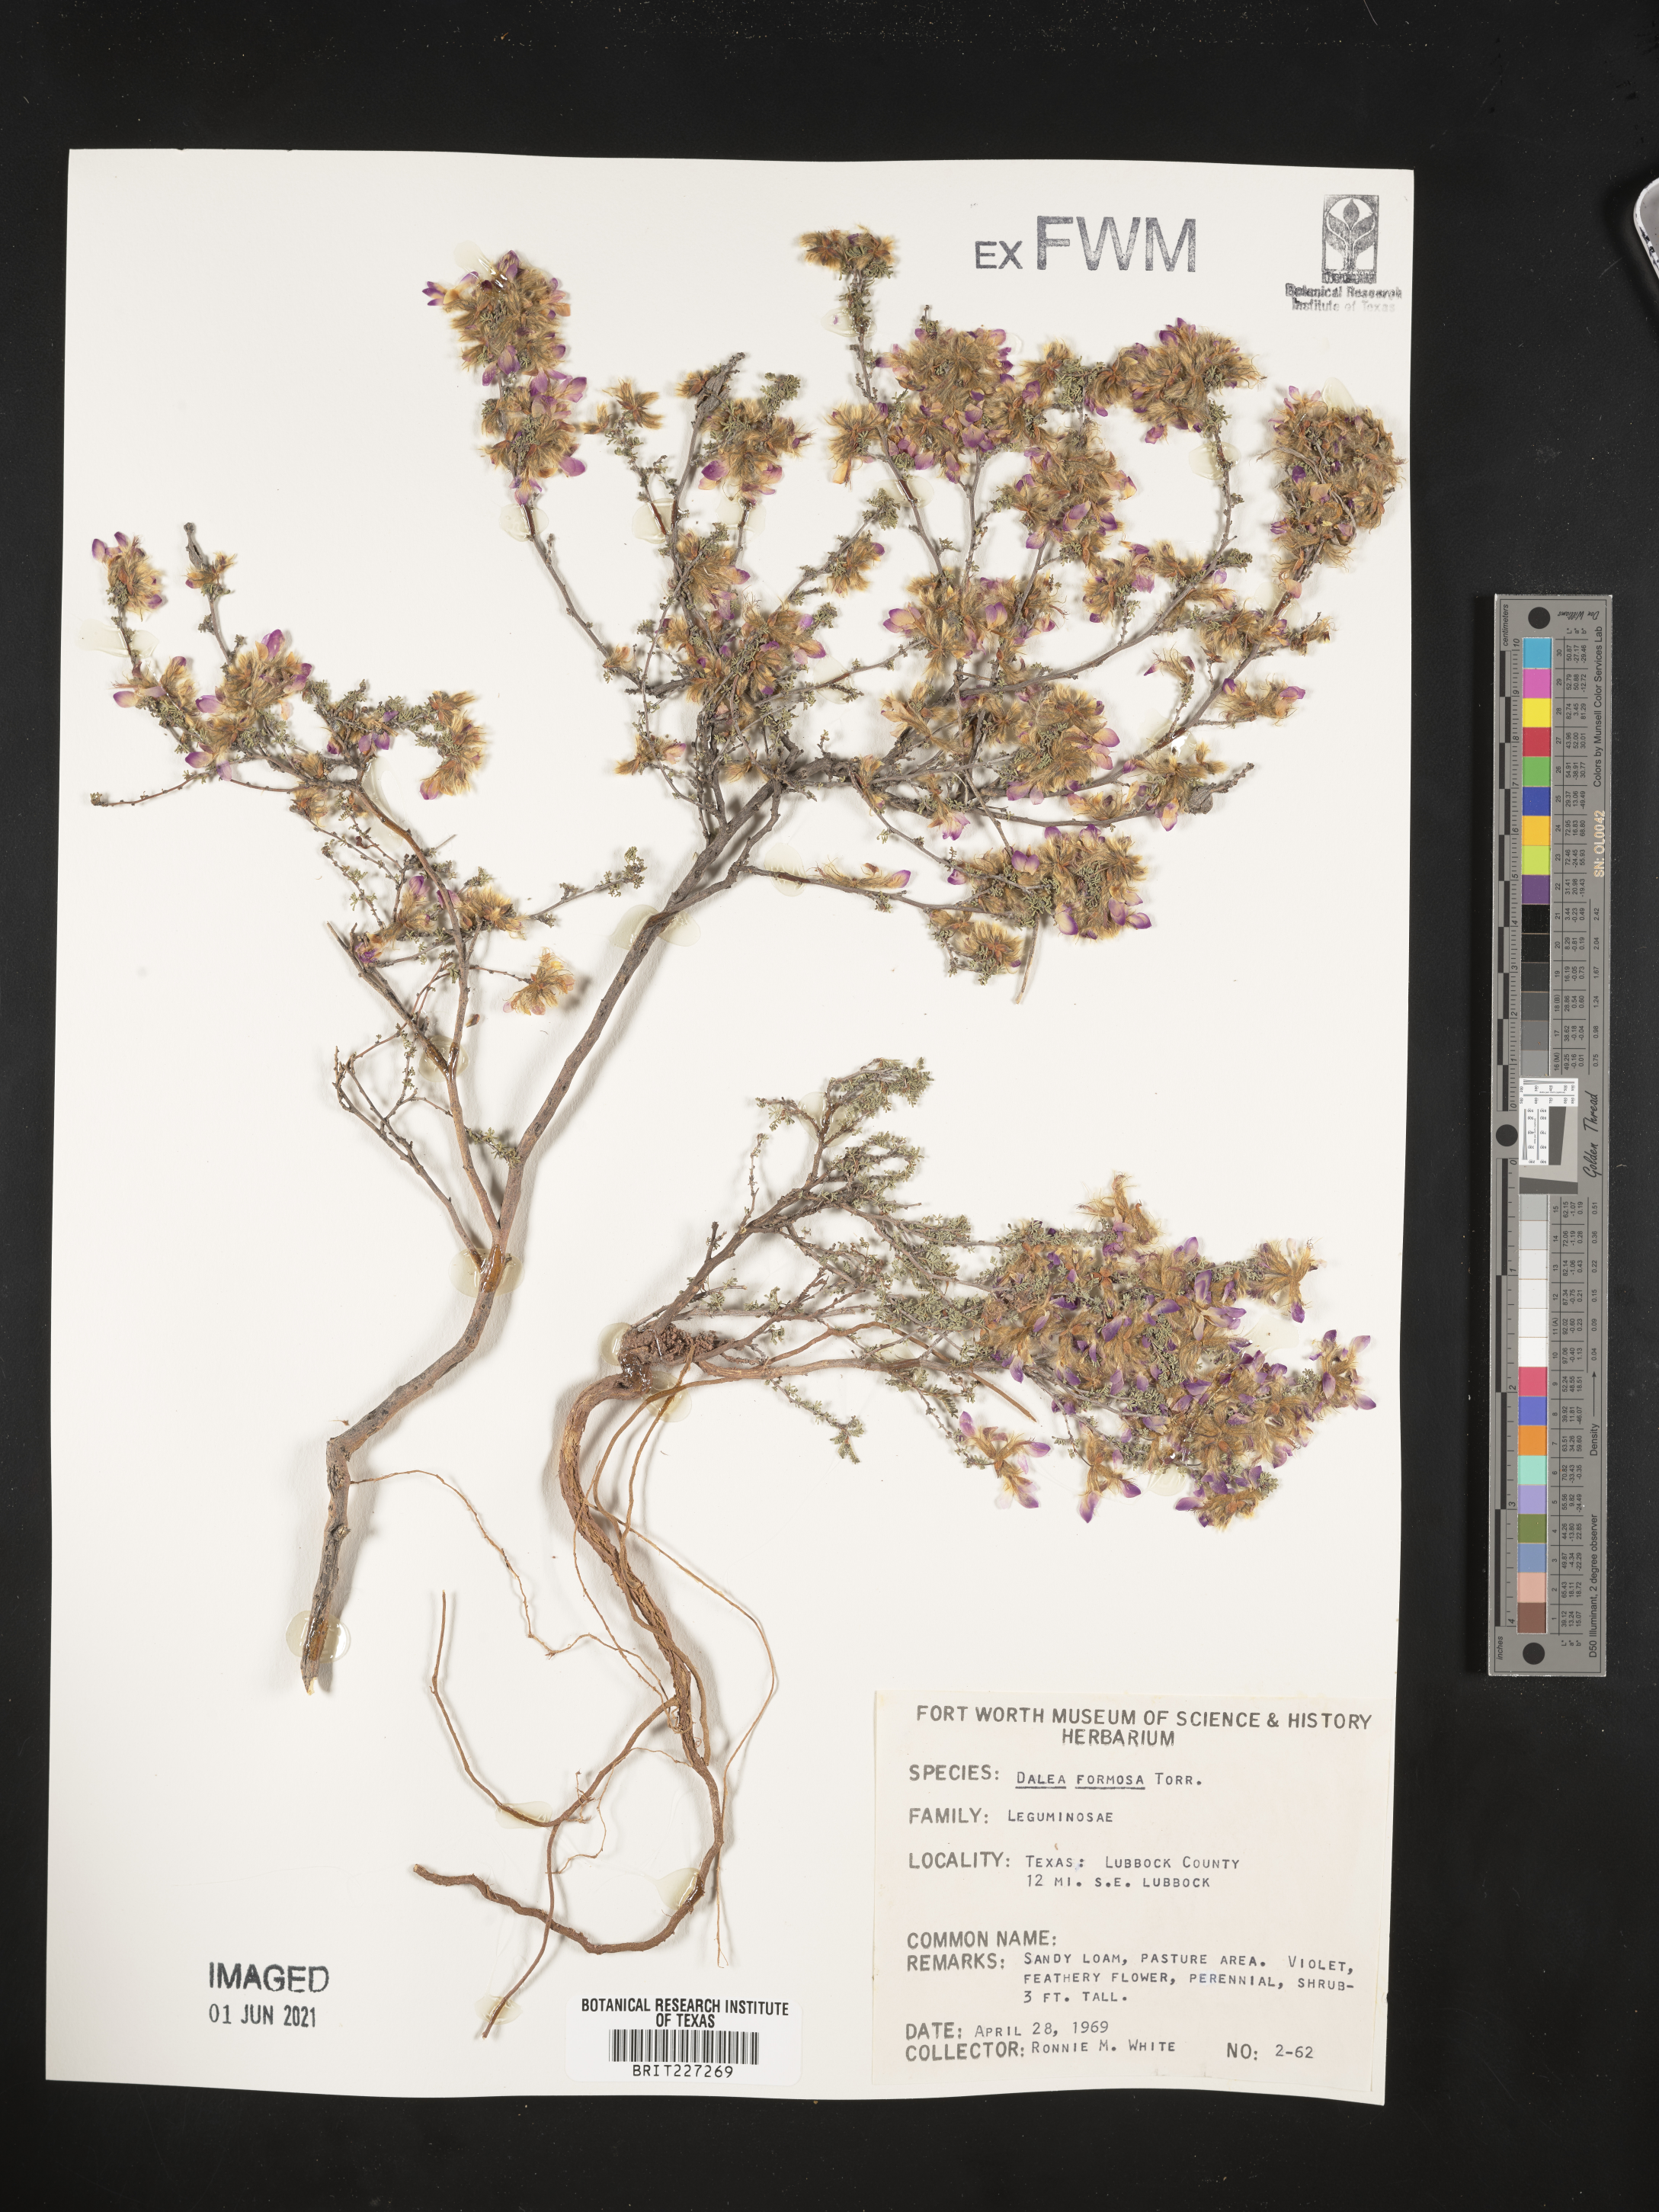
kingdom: Plantae
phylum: Tracheophyta
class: Magnoliopsida
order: Fabales
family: Fabaceae
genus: Dalea
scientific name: Dalea formosa
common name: Feather-plume dalea
